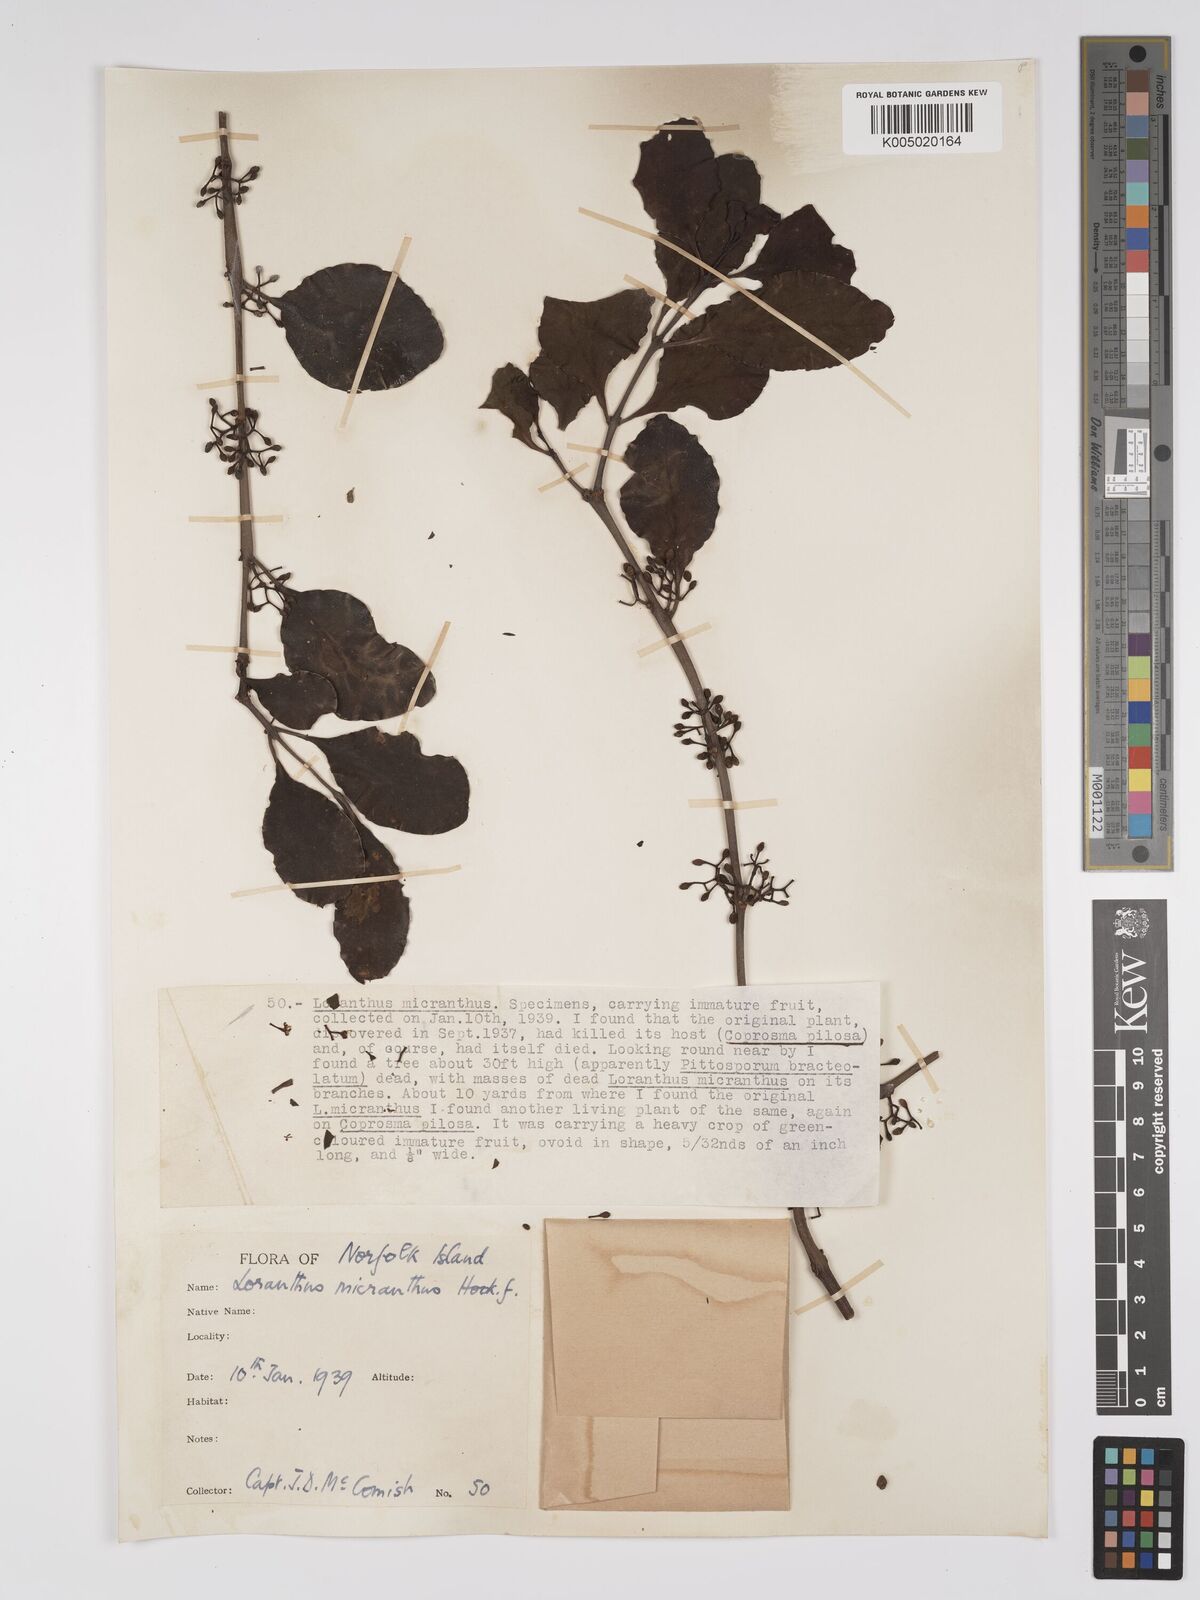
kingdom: Plantae
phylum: Tracheophyta
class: Magnoliopsida
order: Santalales
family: Loranthaceae
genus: Ileostylus
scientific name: Ileostylus micranthus
